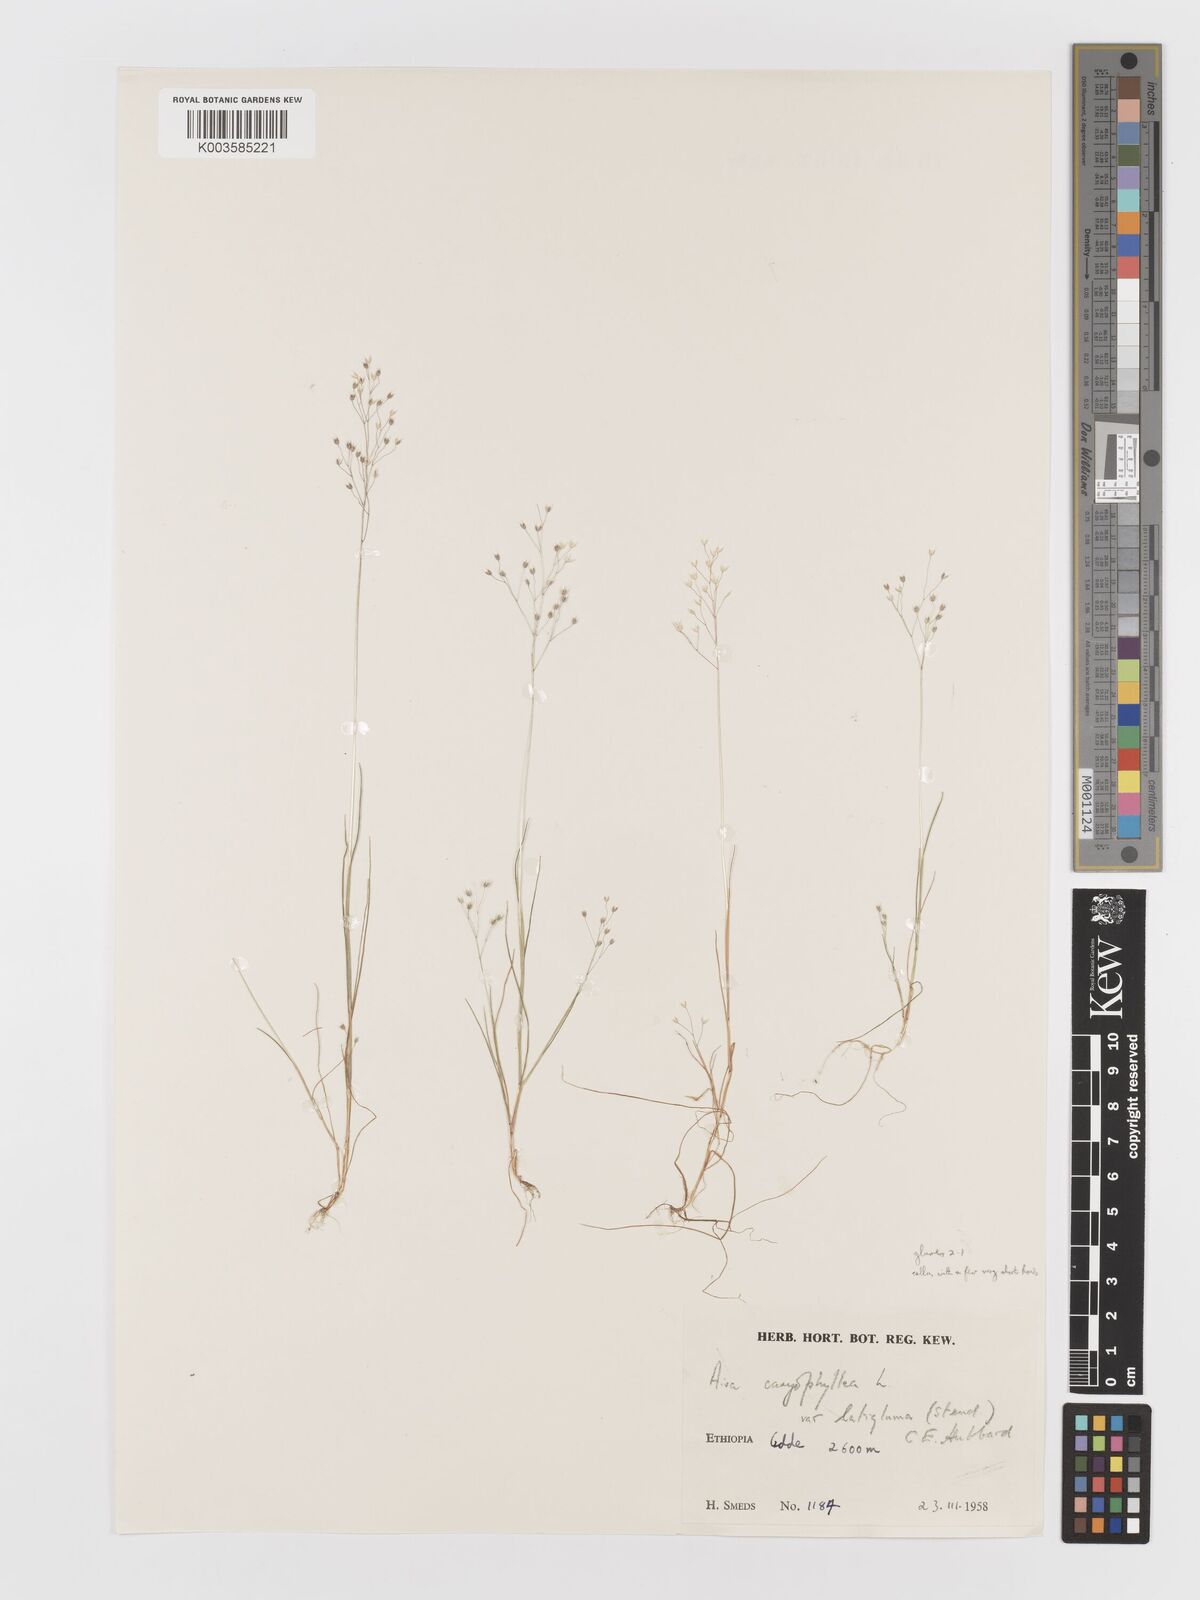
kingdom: Plantae
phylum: Tracheophyta
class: Liliopsida
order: Poales
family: Poaceae
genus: Aira
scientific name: Aira caryophyllea
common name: Silver hairgrass
